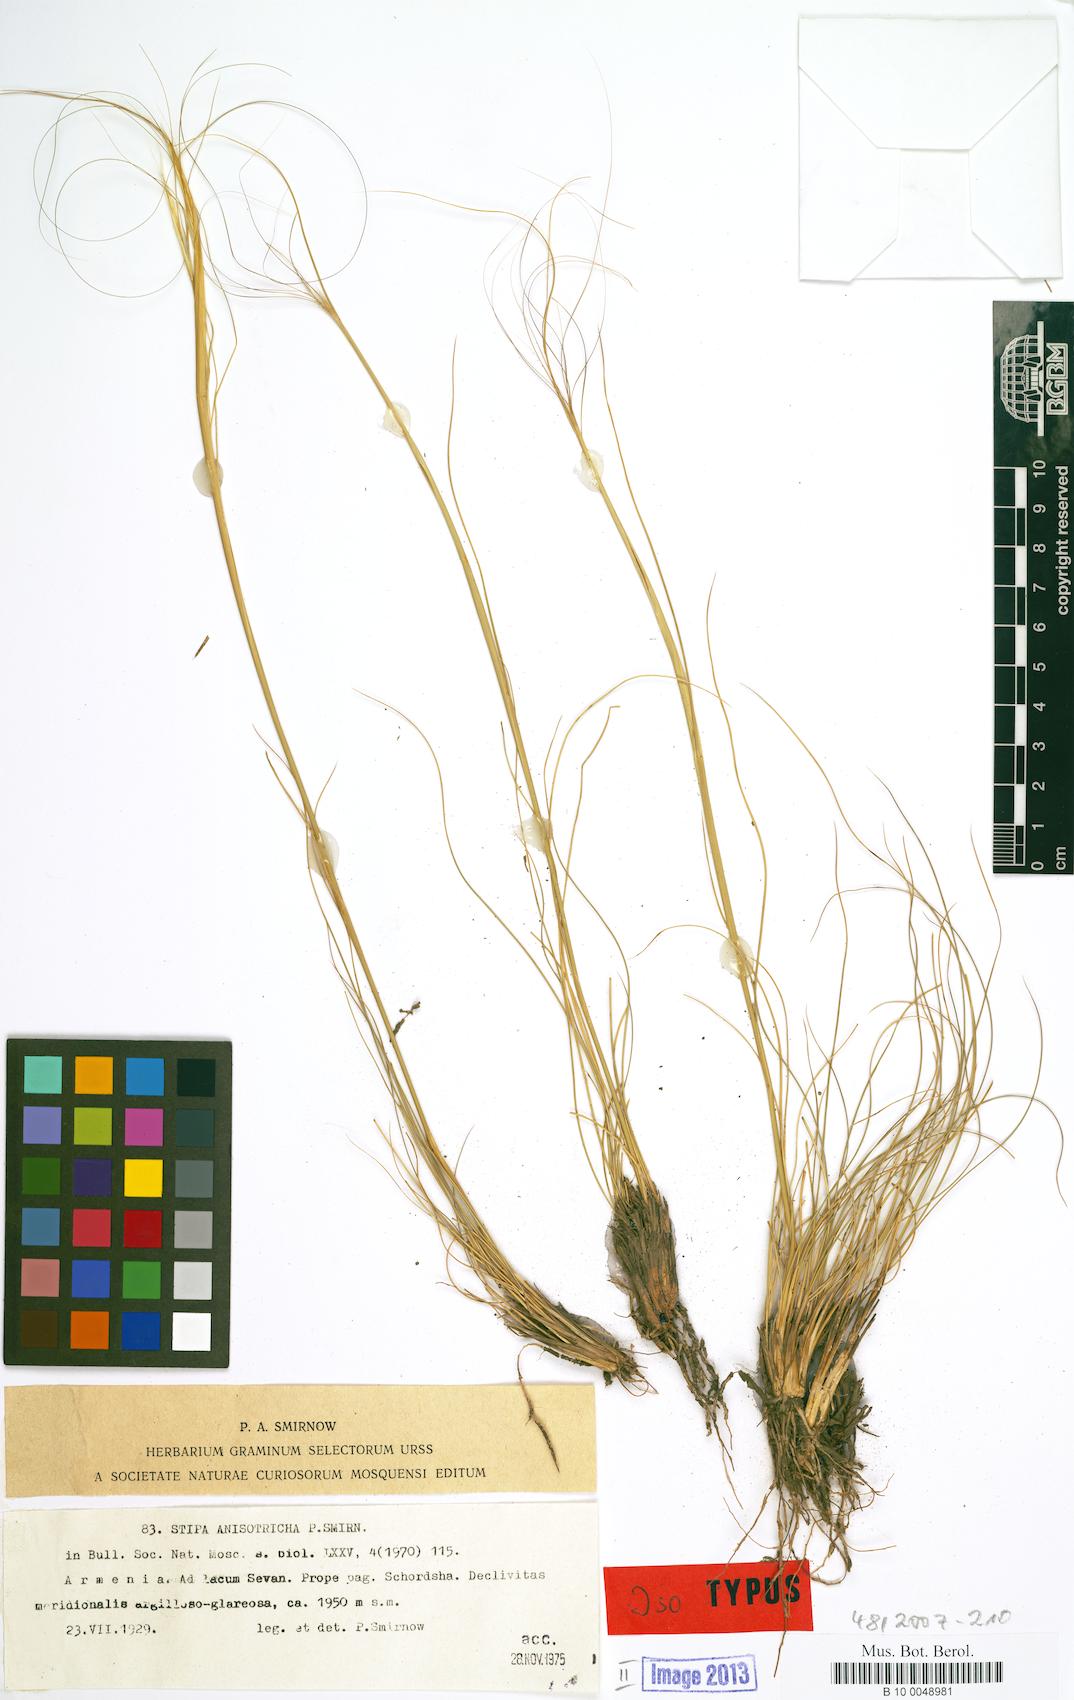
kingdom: Plantae
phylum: Tracheophyta
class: Liliopsida
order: Poales
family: Poaceae
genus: Stipa
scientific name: Stipa sareptana
